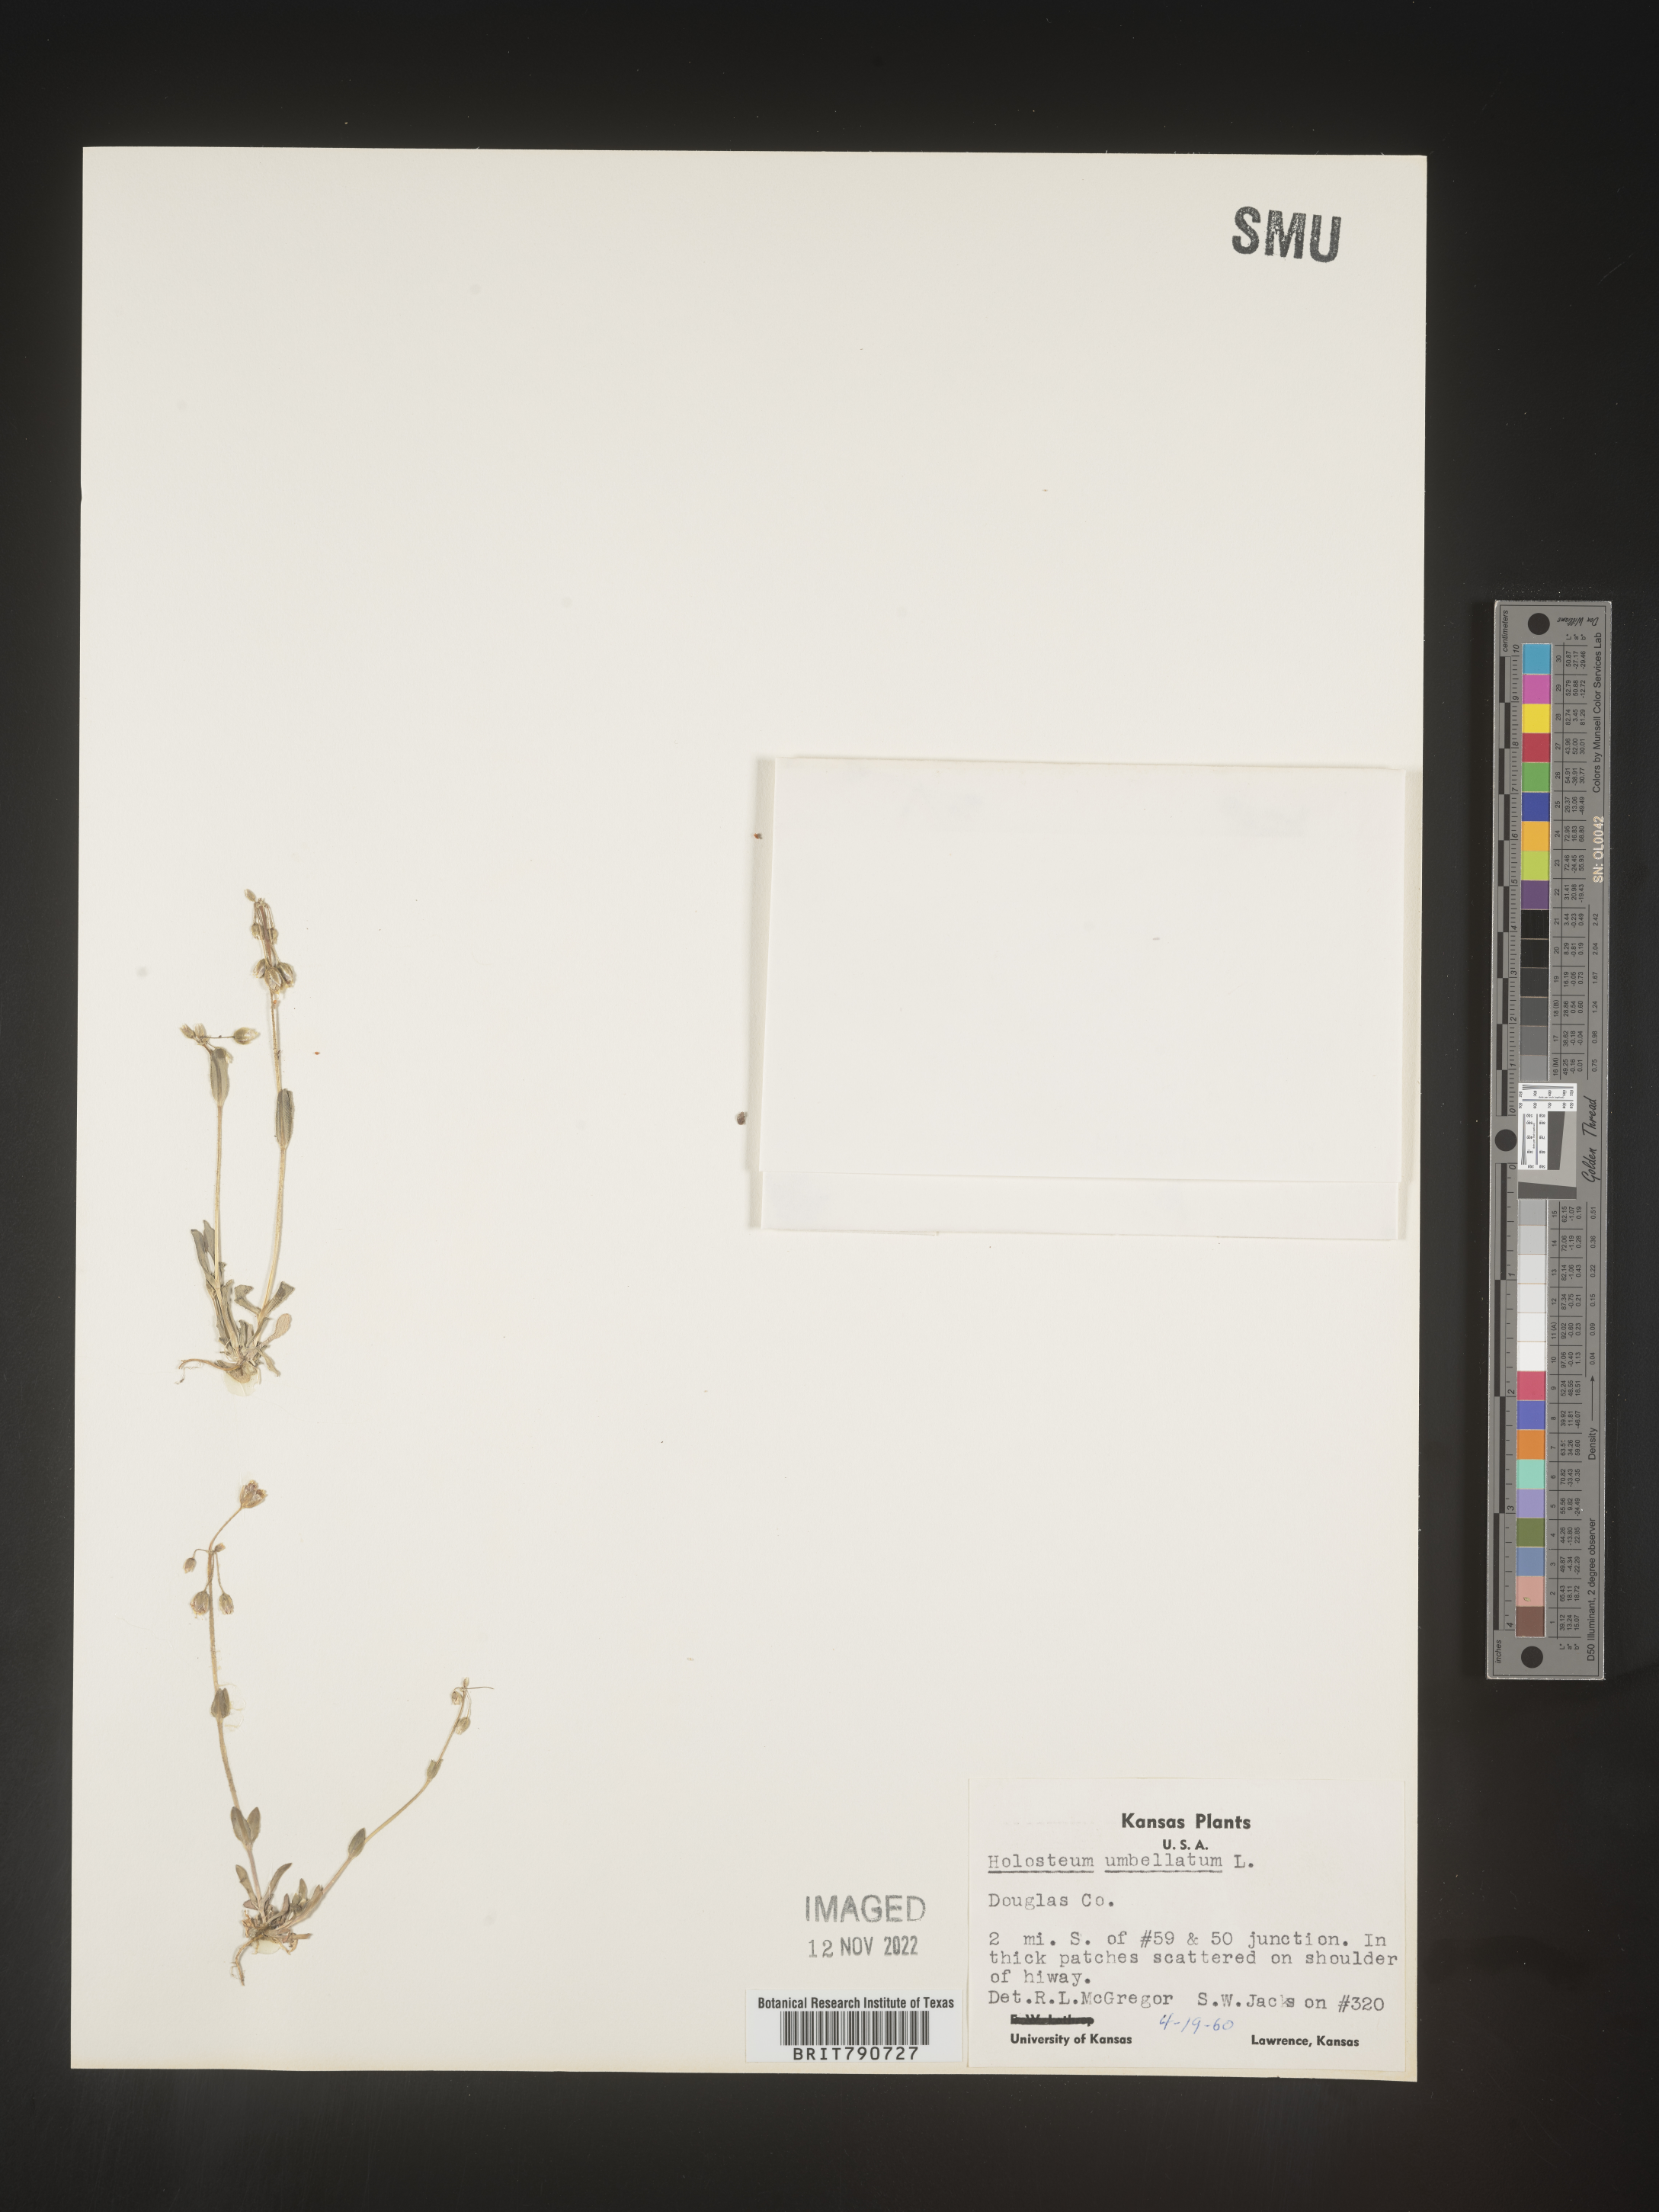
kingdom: Plantae
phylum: Tracheophyta
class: Magnoliopsida
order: Caryophyllales
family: Caryophyllaceae
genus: Holosteum
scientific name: Holosteum
